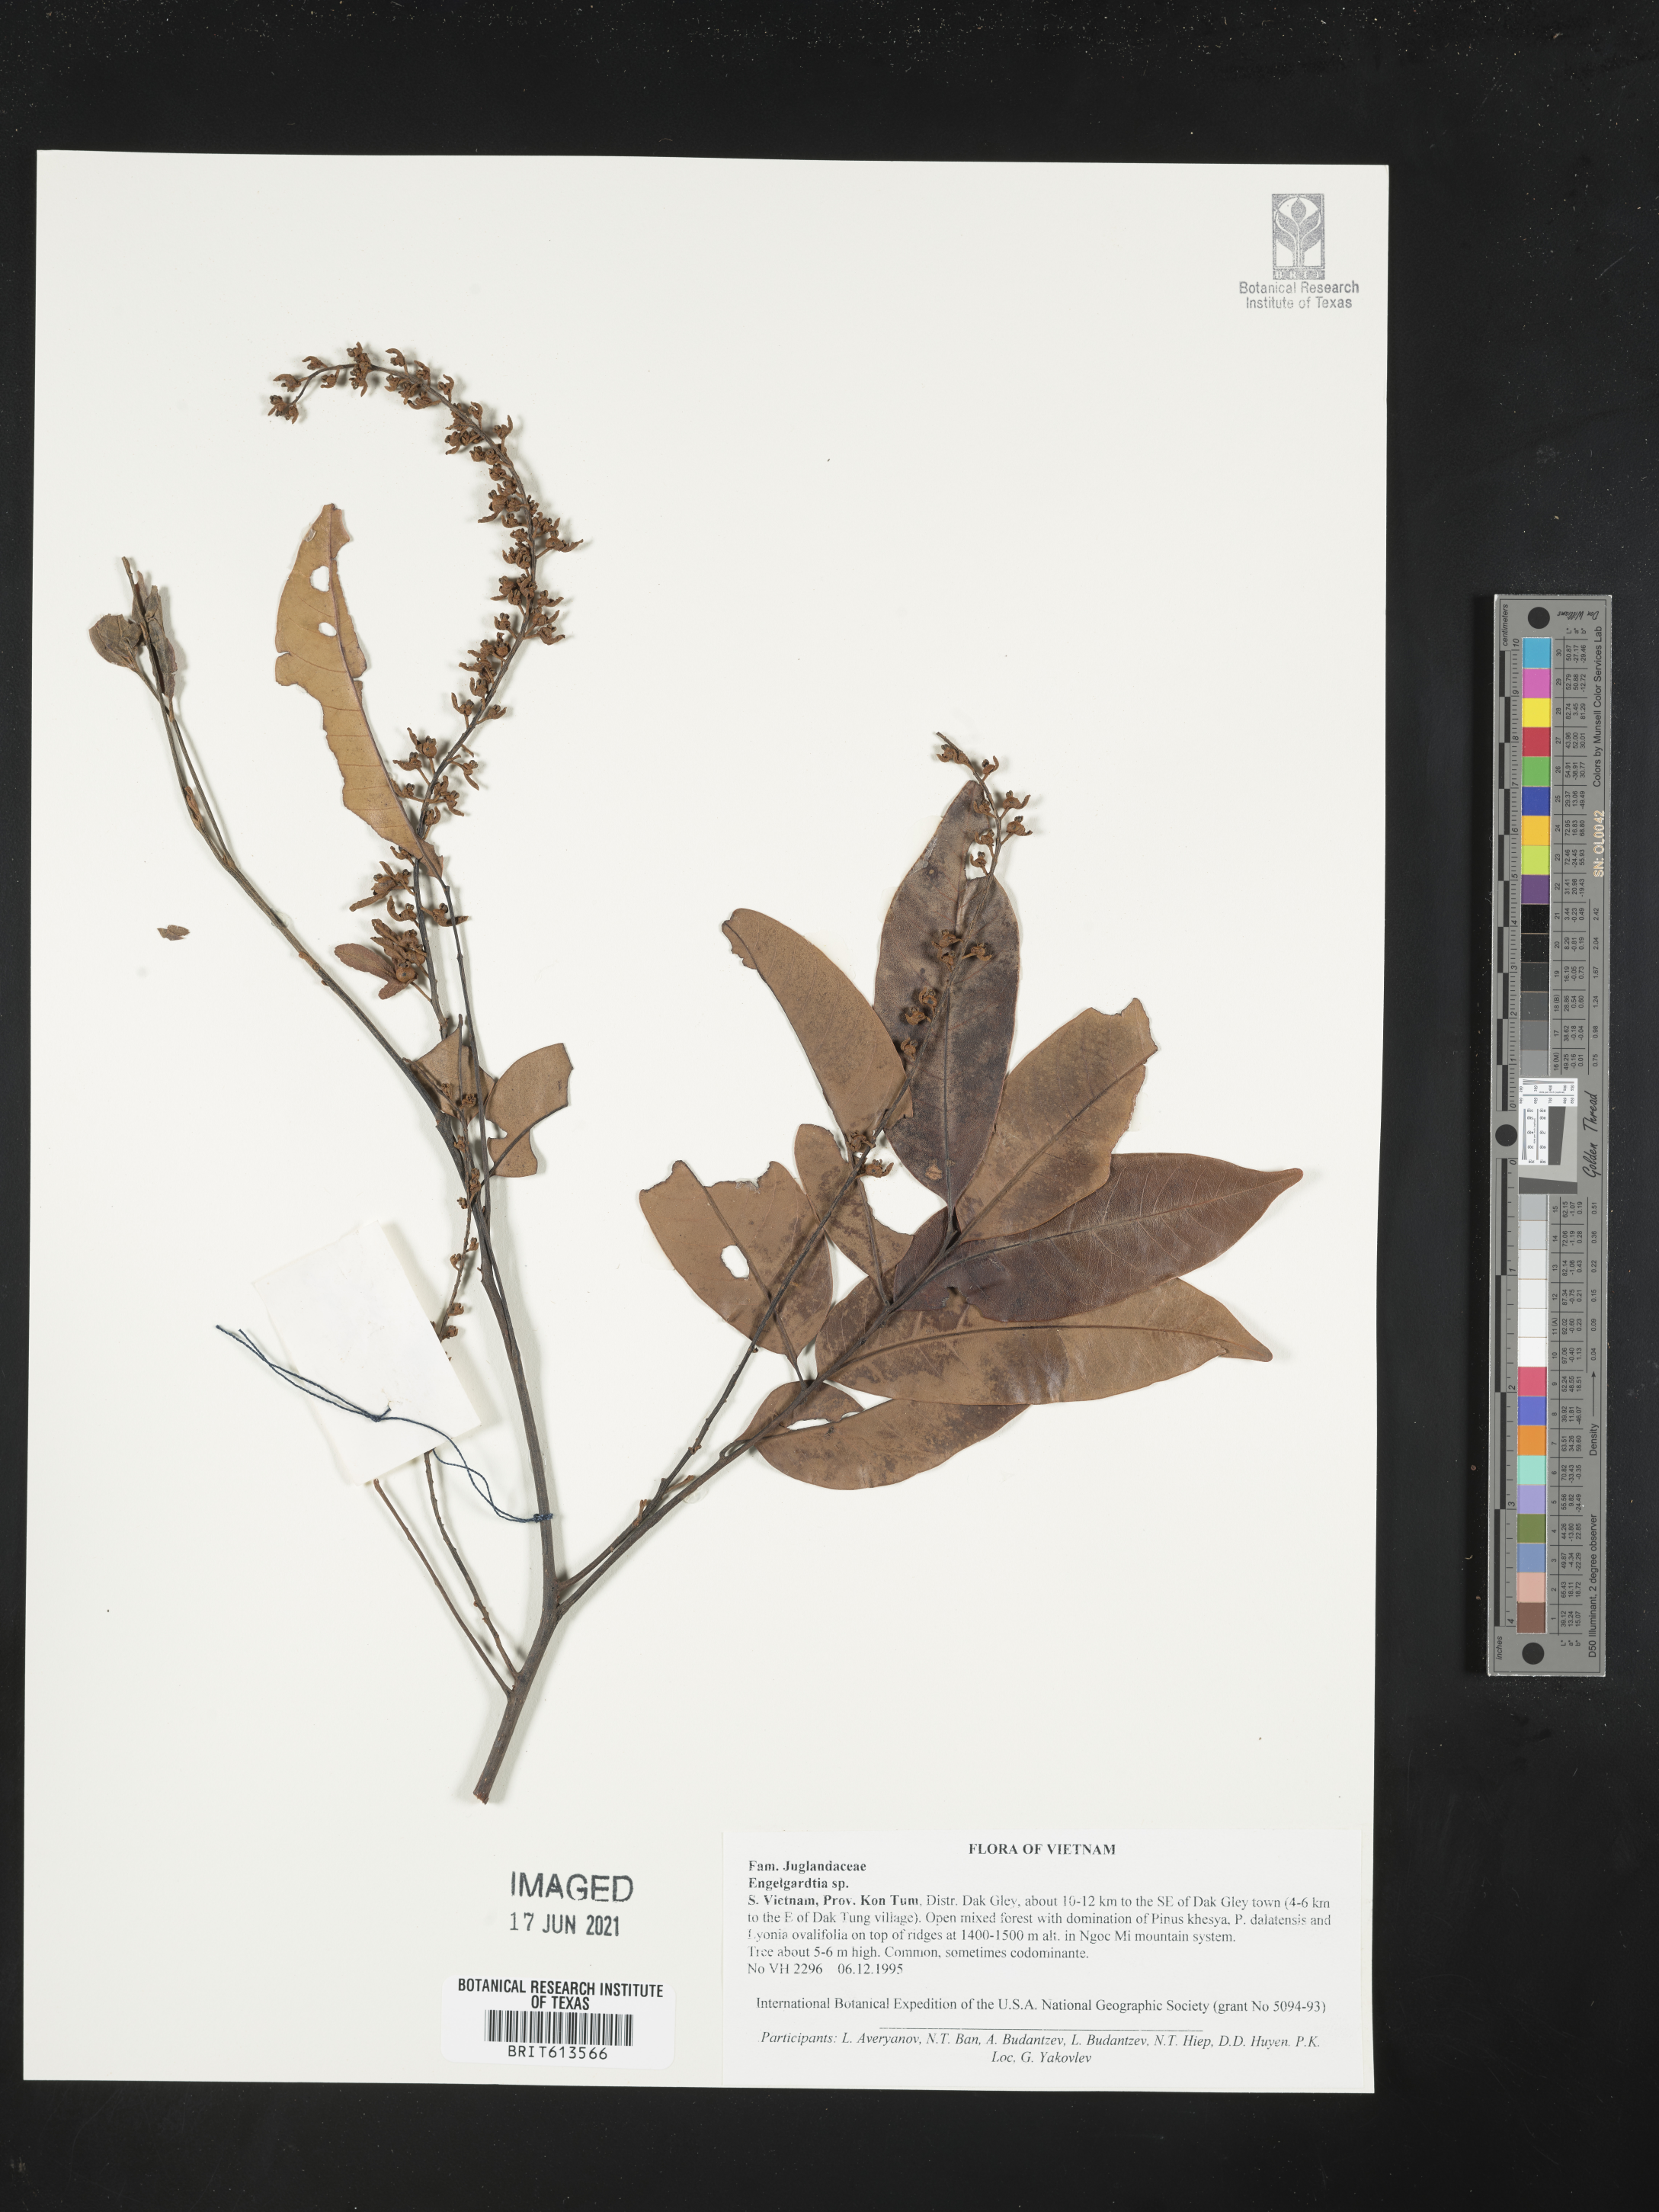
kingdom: Plantae
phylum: Tracheophyta
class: Magnoliopsida
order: Fagales
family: Juglandaceae
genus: Engelhardia
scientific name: Engelhardia
